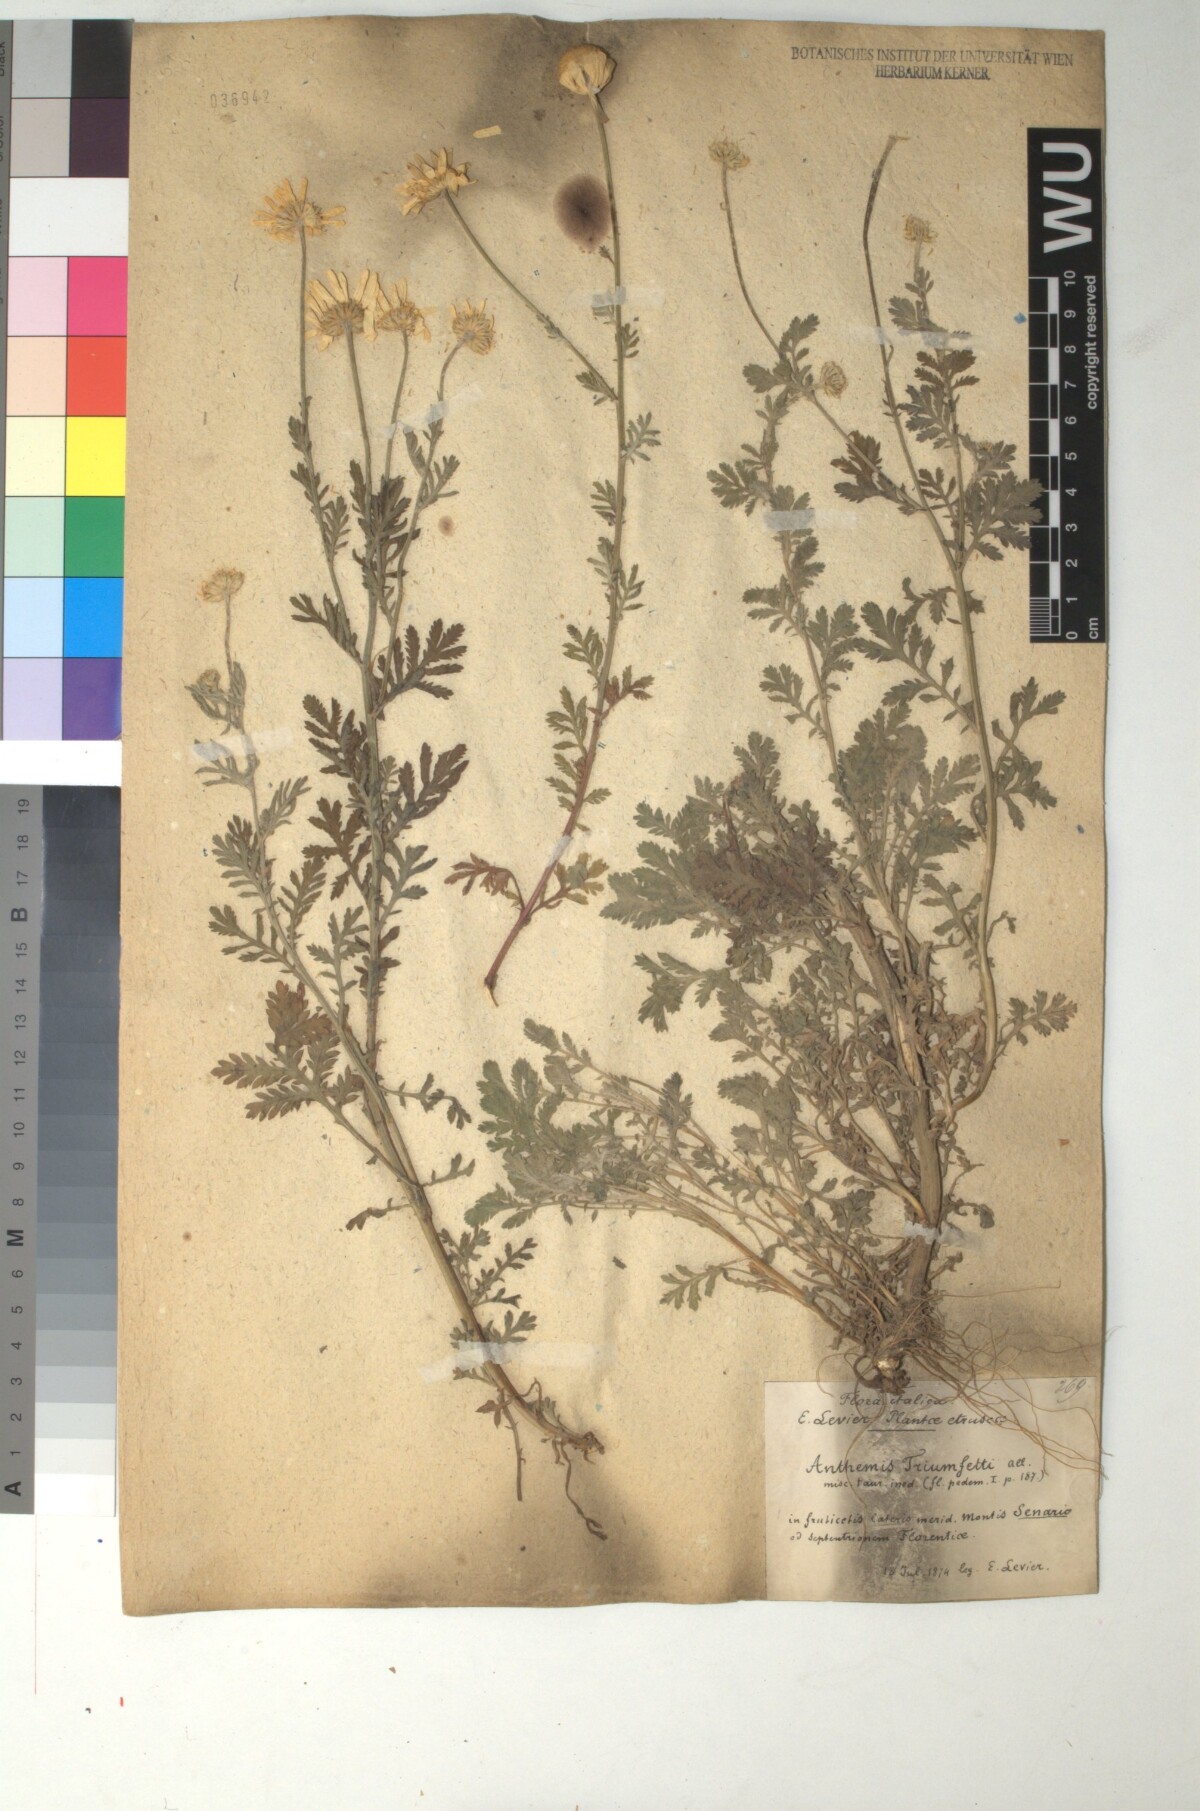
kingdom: Plantae
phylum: Tracheophyta
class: Magnoliopsida
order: Asterales
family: Asteraceae
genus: Cota
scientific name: Cota triumfetti
